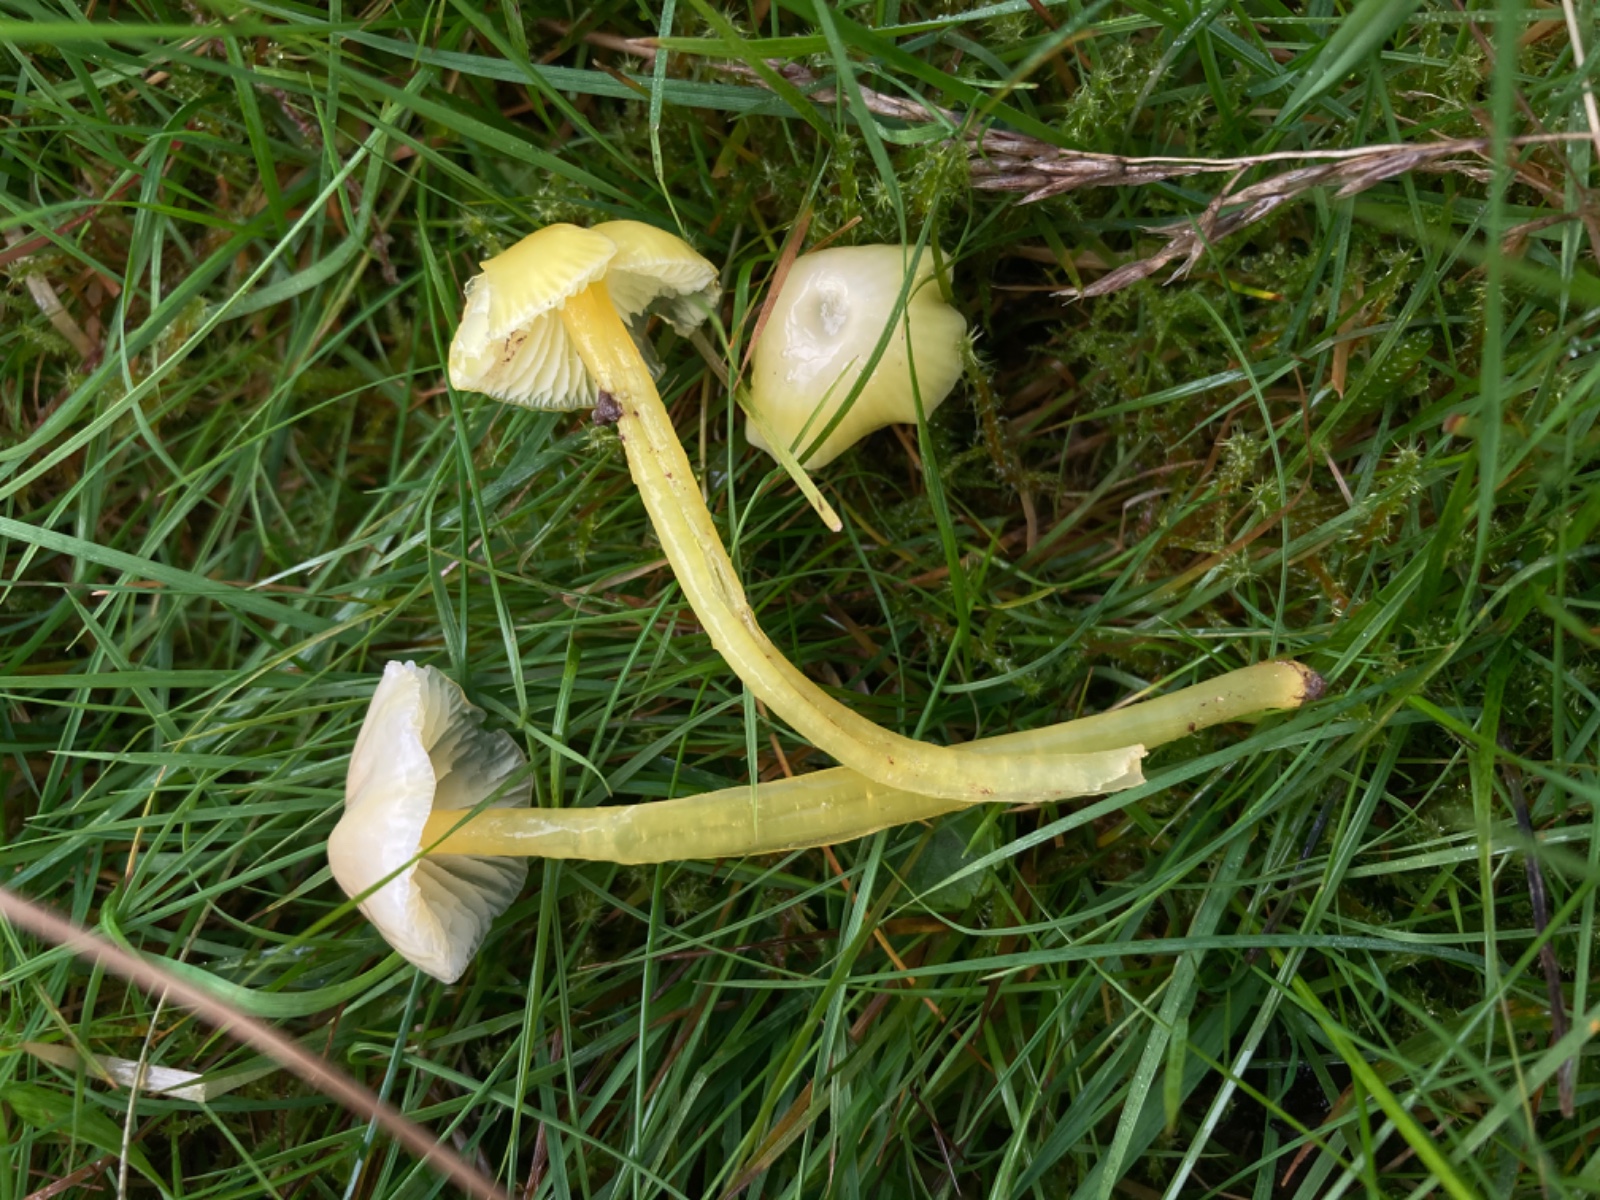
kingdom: Fungi
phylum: Basidiomycota
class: Agaricomycetes
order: Agaricales
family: Hygrophoraceae
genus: Hygrocybe
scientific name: Hygrocybe glutinipes
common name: slimstokket vokshat
